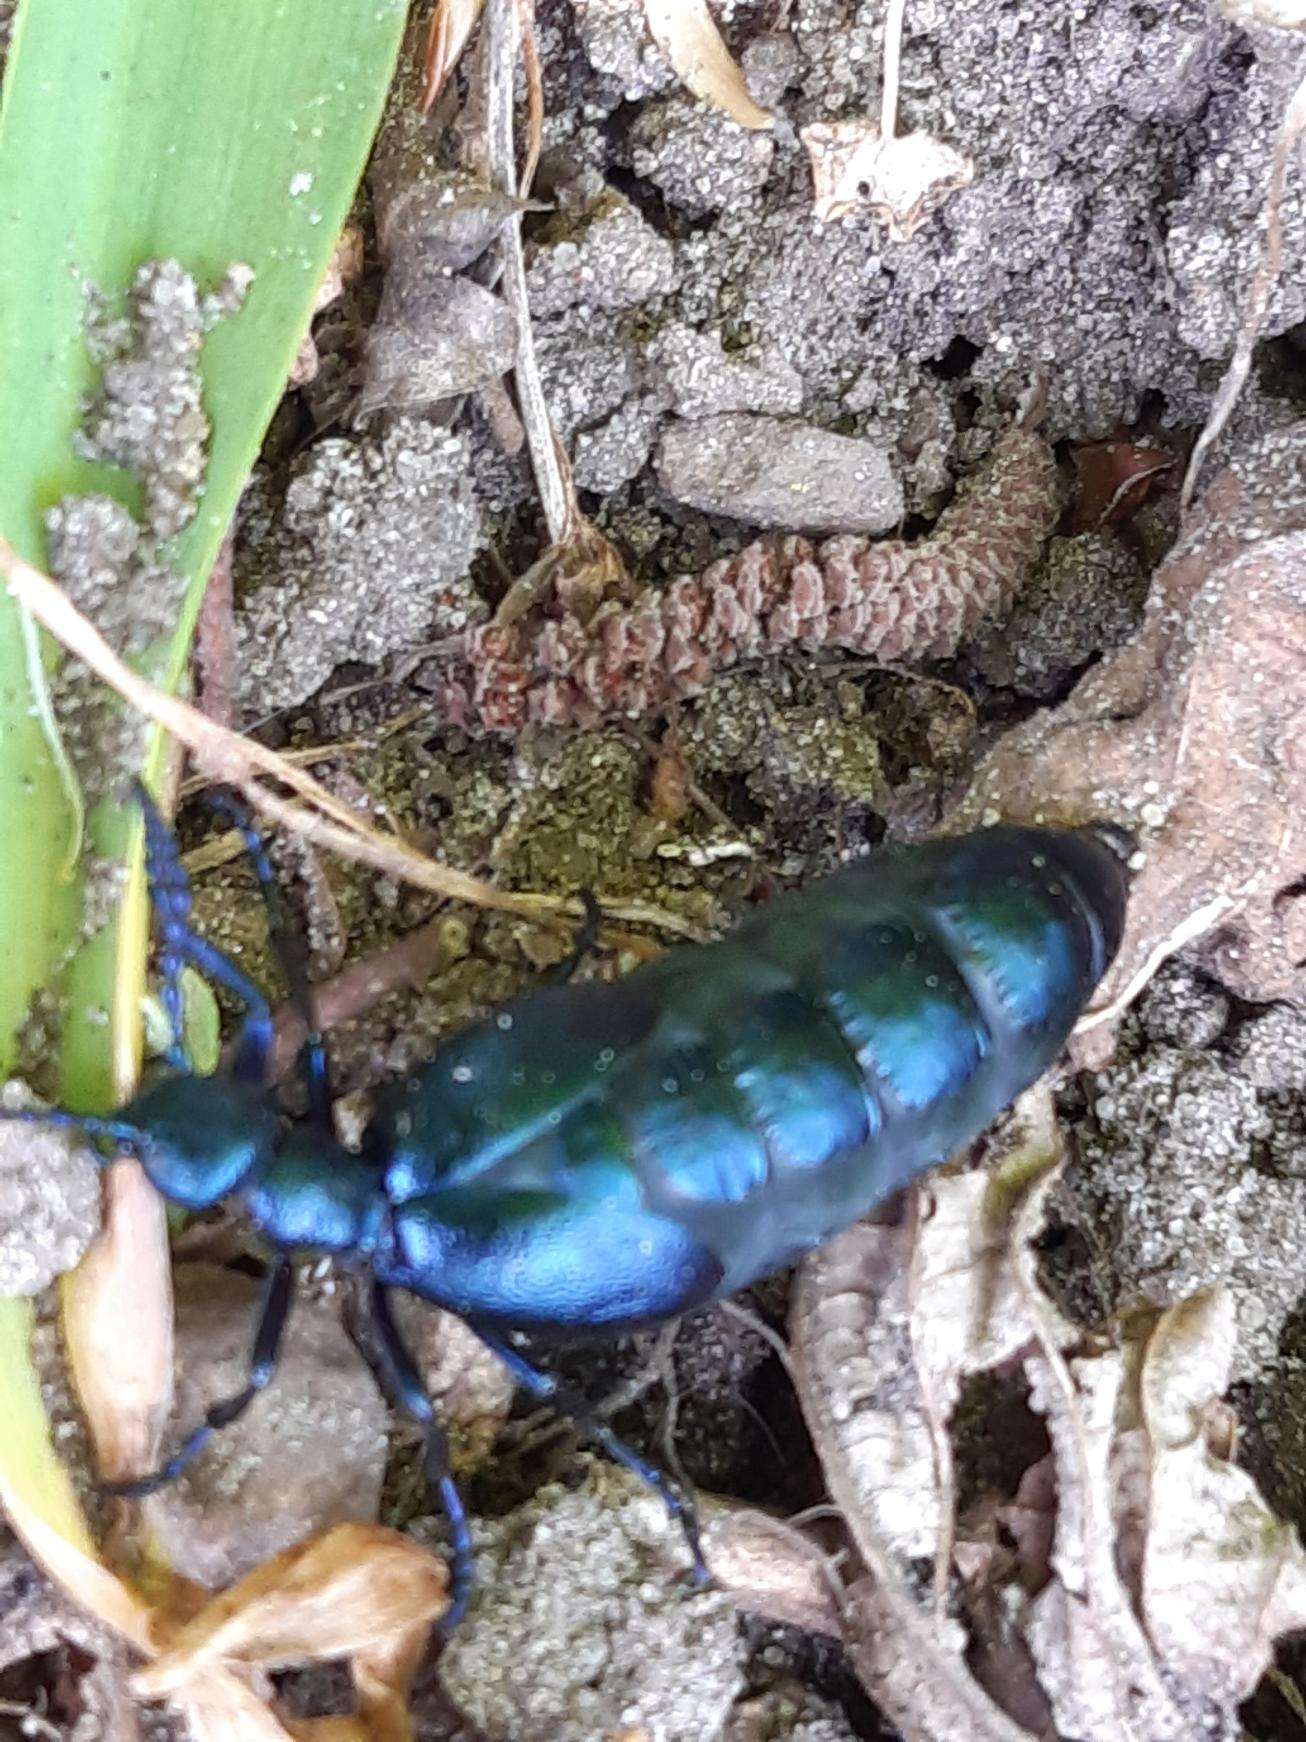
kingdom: Animalia
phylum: Arthropoda
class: Insecta
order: Coleoptera
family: Meloidae
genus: Meloe
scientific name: Meloe violaceus
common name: Blå oliebille
